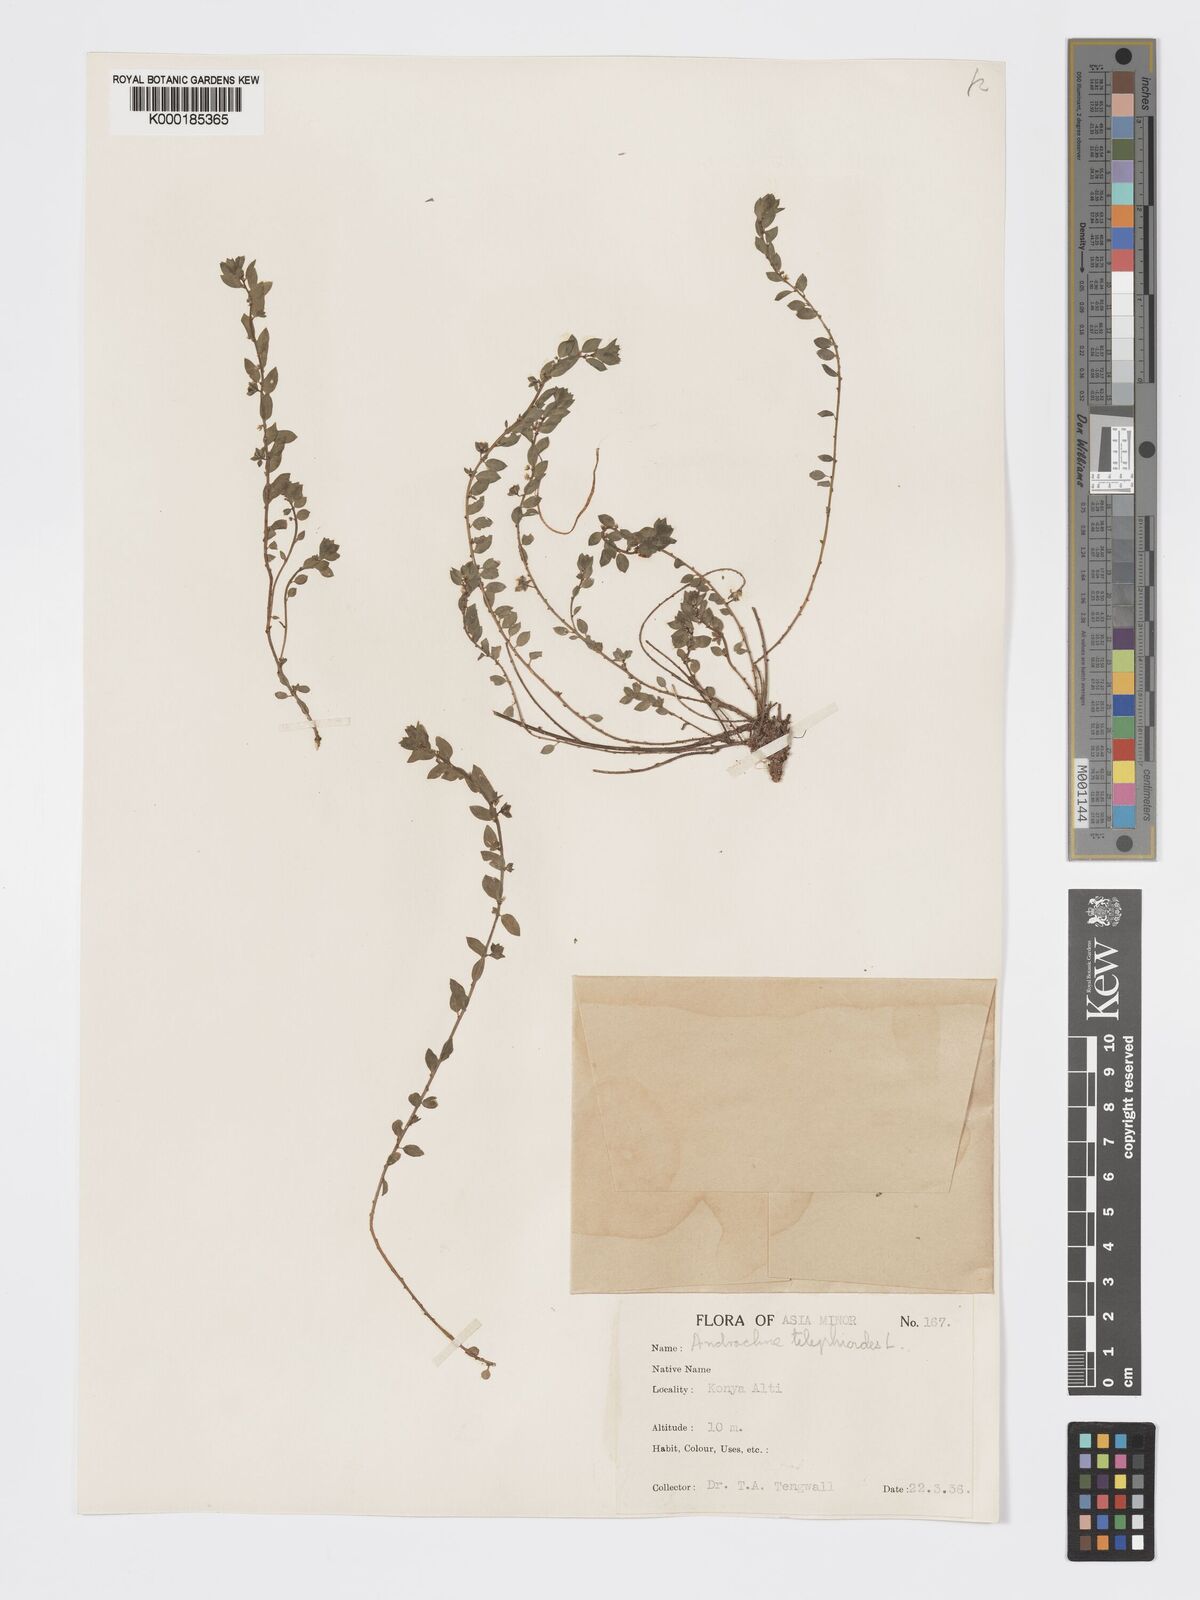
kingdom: Plantae
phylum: Tracheophyta
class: Magnoliopsida
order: Malpighiales
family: Phyllanthaceae
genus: Andrachne
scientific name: Andrachne telephioides
